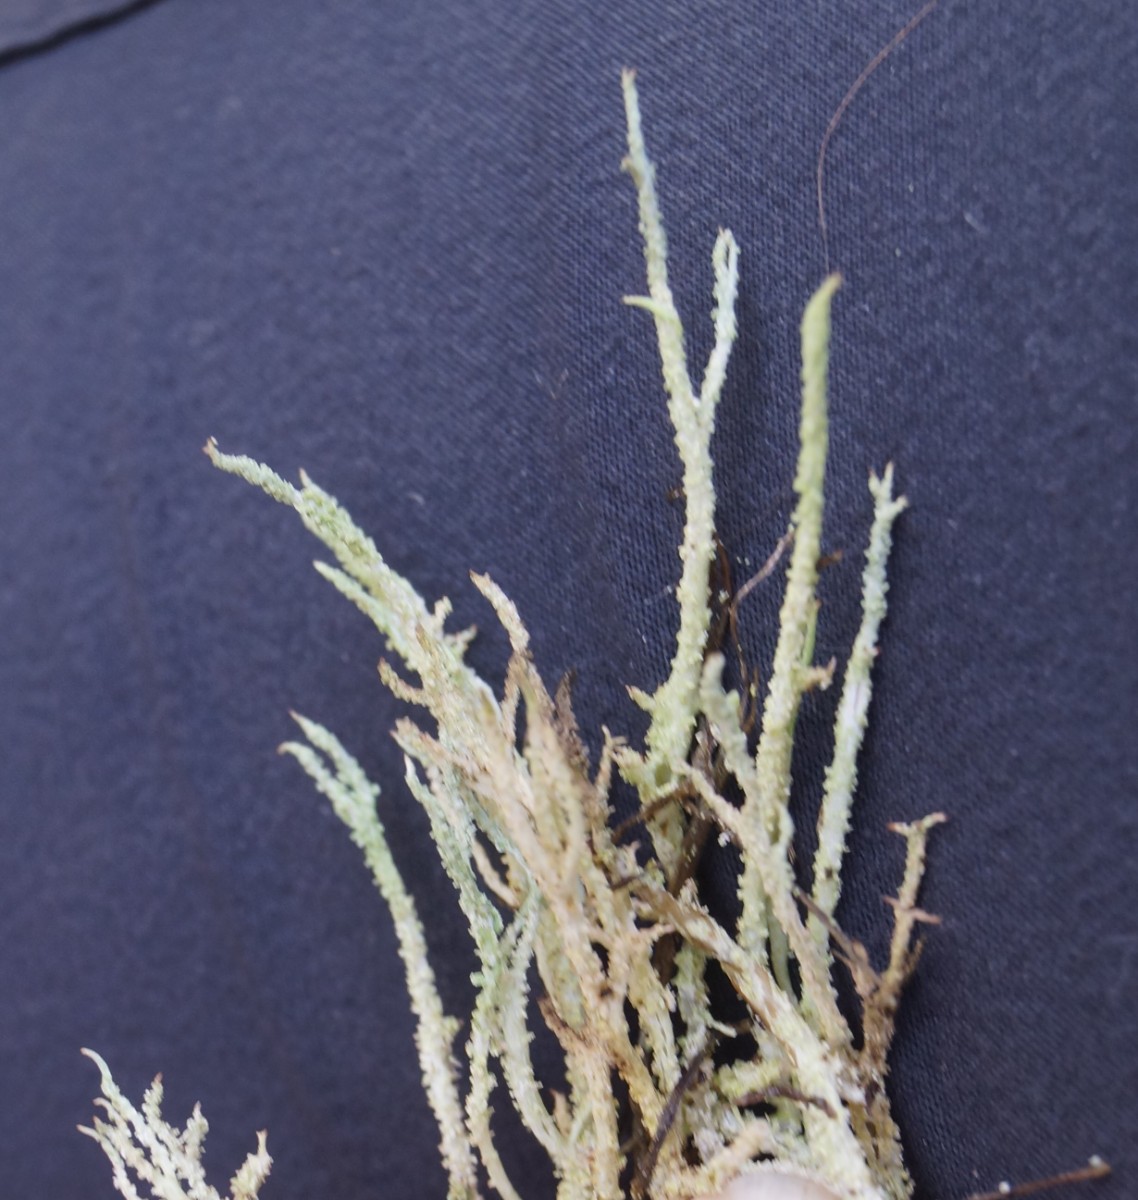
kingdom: Fungi
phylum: Ascomycota
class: Lecanoromycetes
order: Lecanorales
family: Cladoniaceae
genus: Cladonia
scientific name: Cladonia scabriuscula
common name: ru bægerlav
